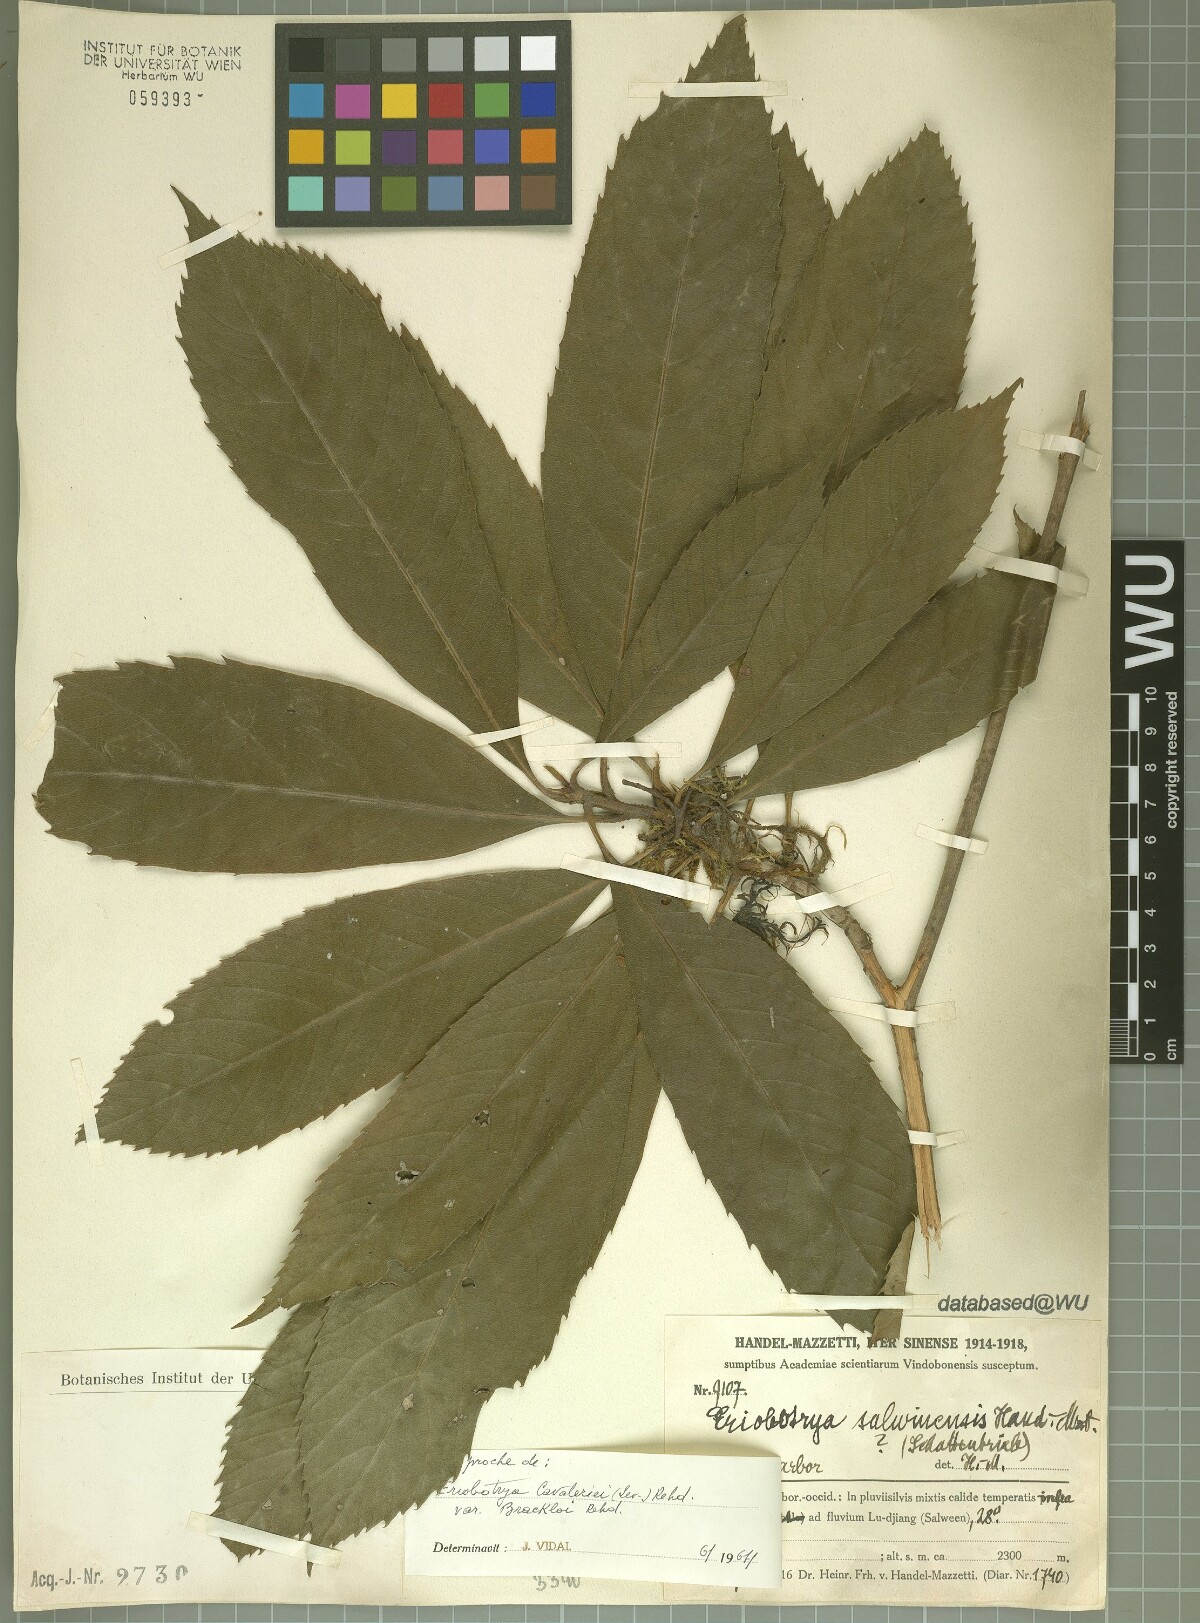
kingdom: Plantae
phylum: Tracheophyta
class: Magnoliopsida
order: Rosales
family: Rosaceae
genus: Rhaphiolepis
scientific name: Rhaphiolepis salwinensis
